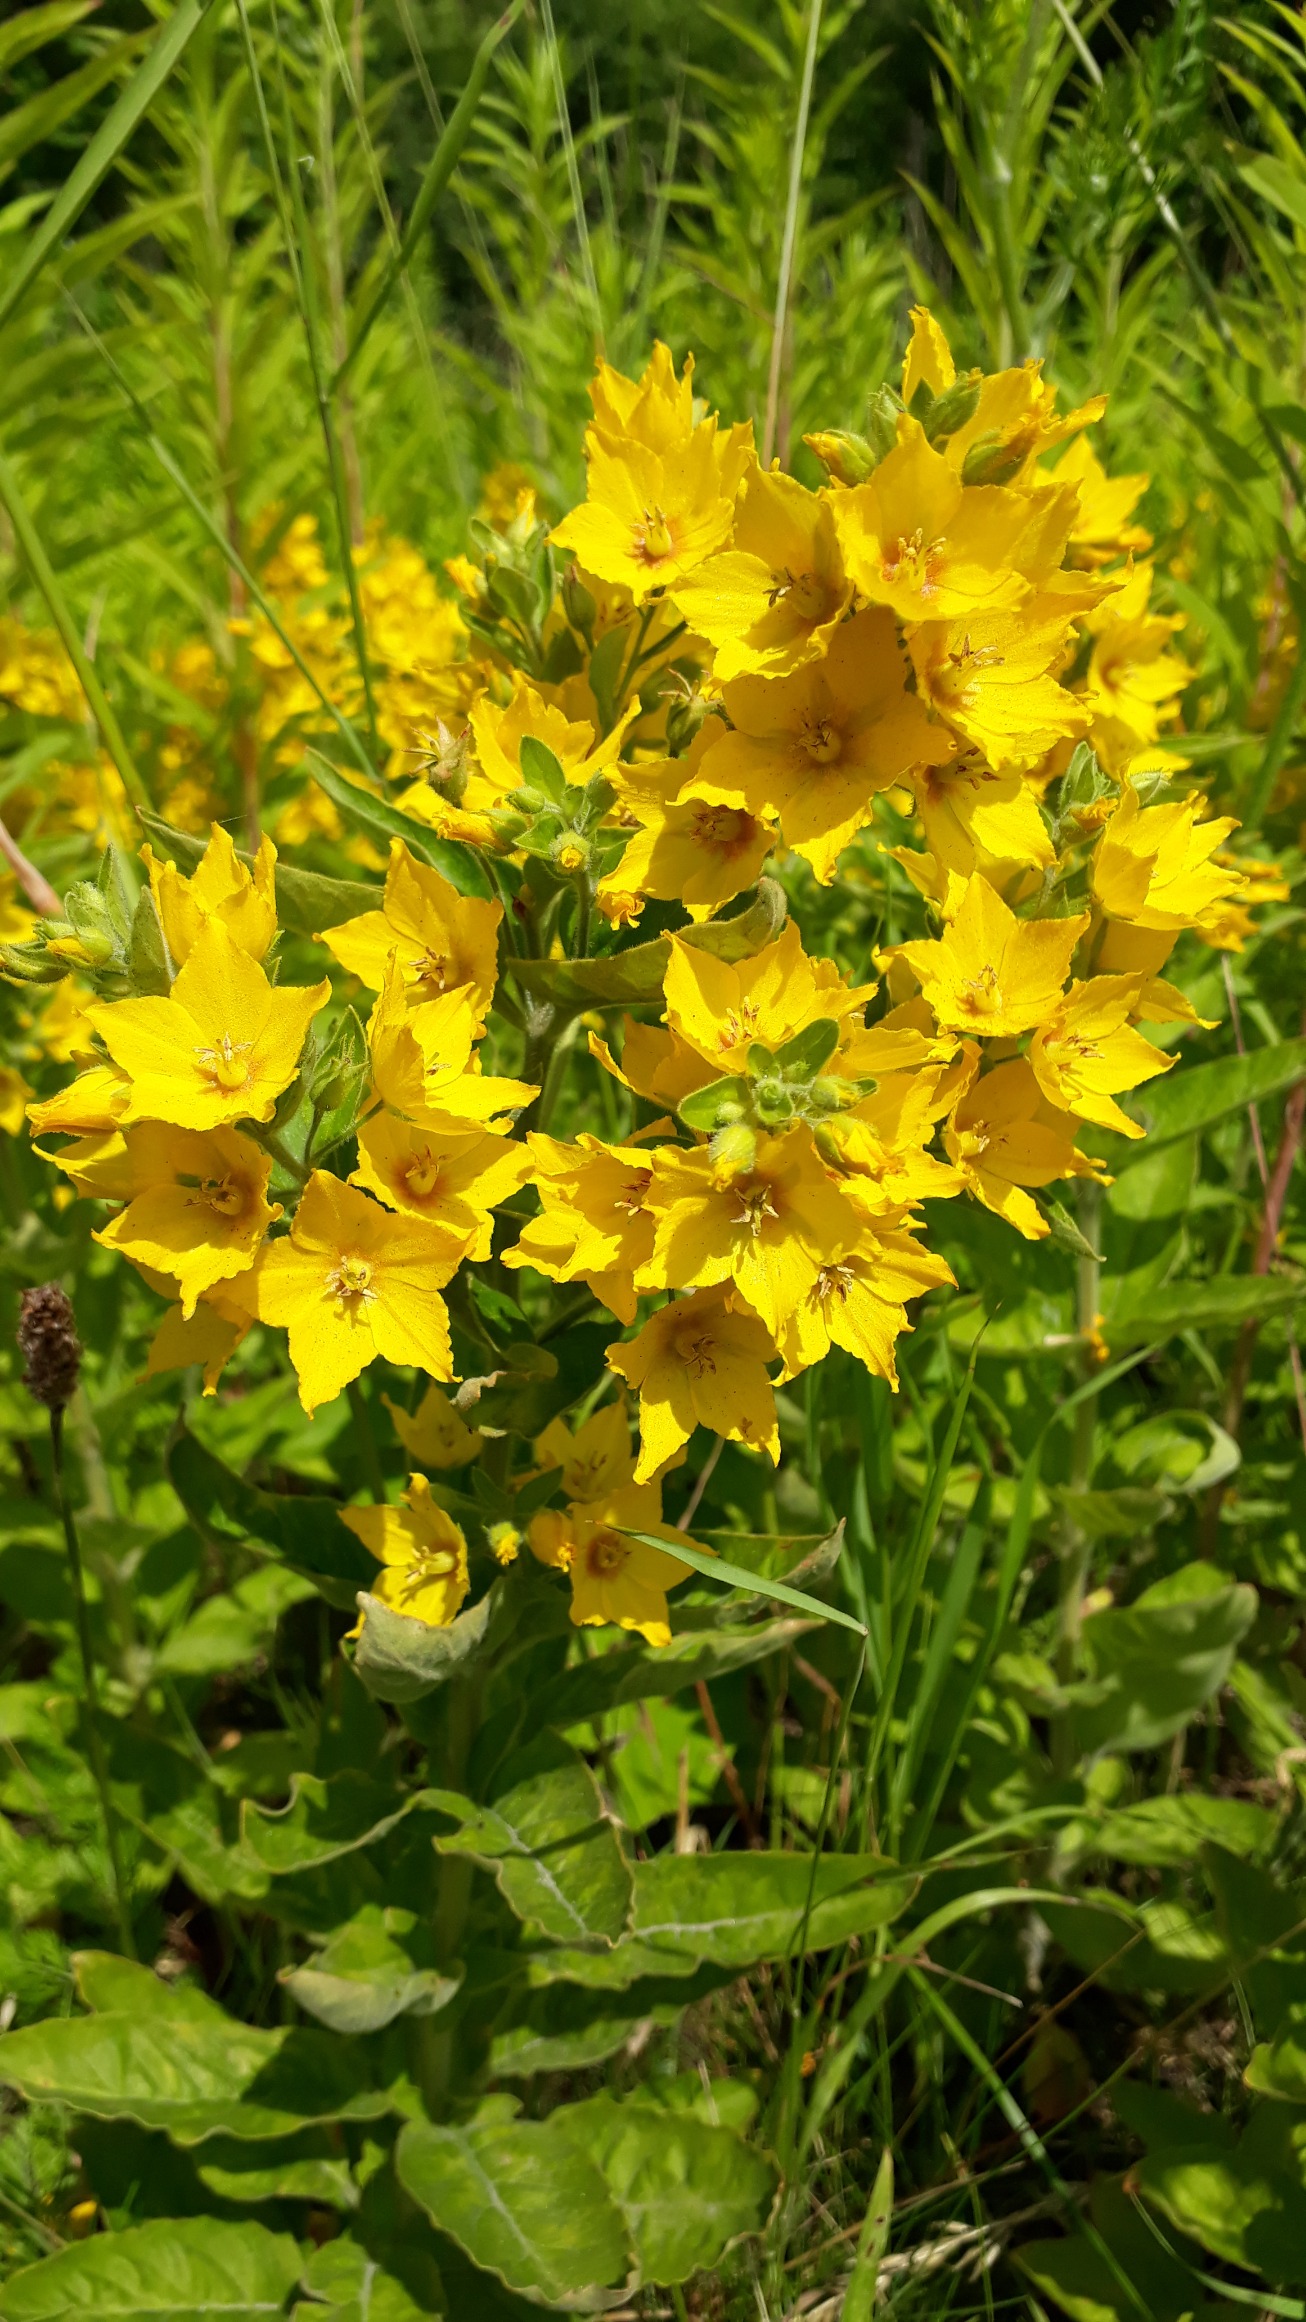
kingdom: Plantae
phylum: Tracheophyta
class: Magnoliopsida
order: Ericales
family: Primulaceae
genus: Lysimachia
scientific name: Lysimachia vulgaris
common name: Almindelig fredløs
